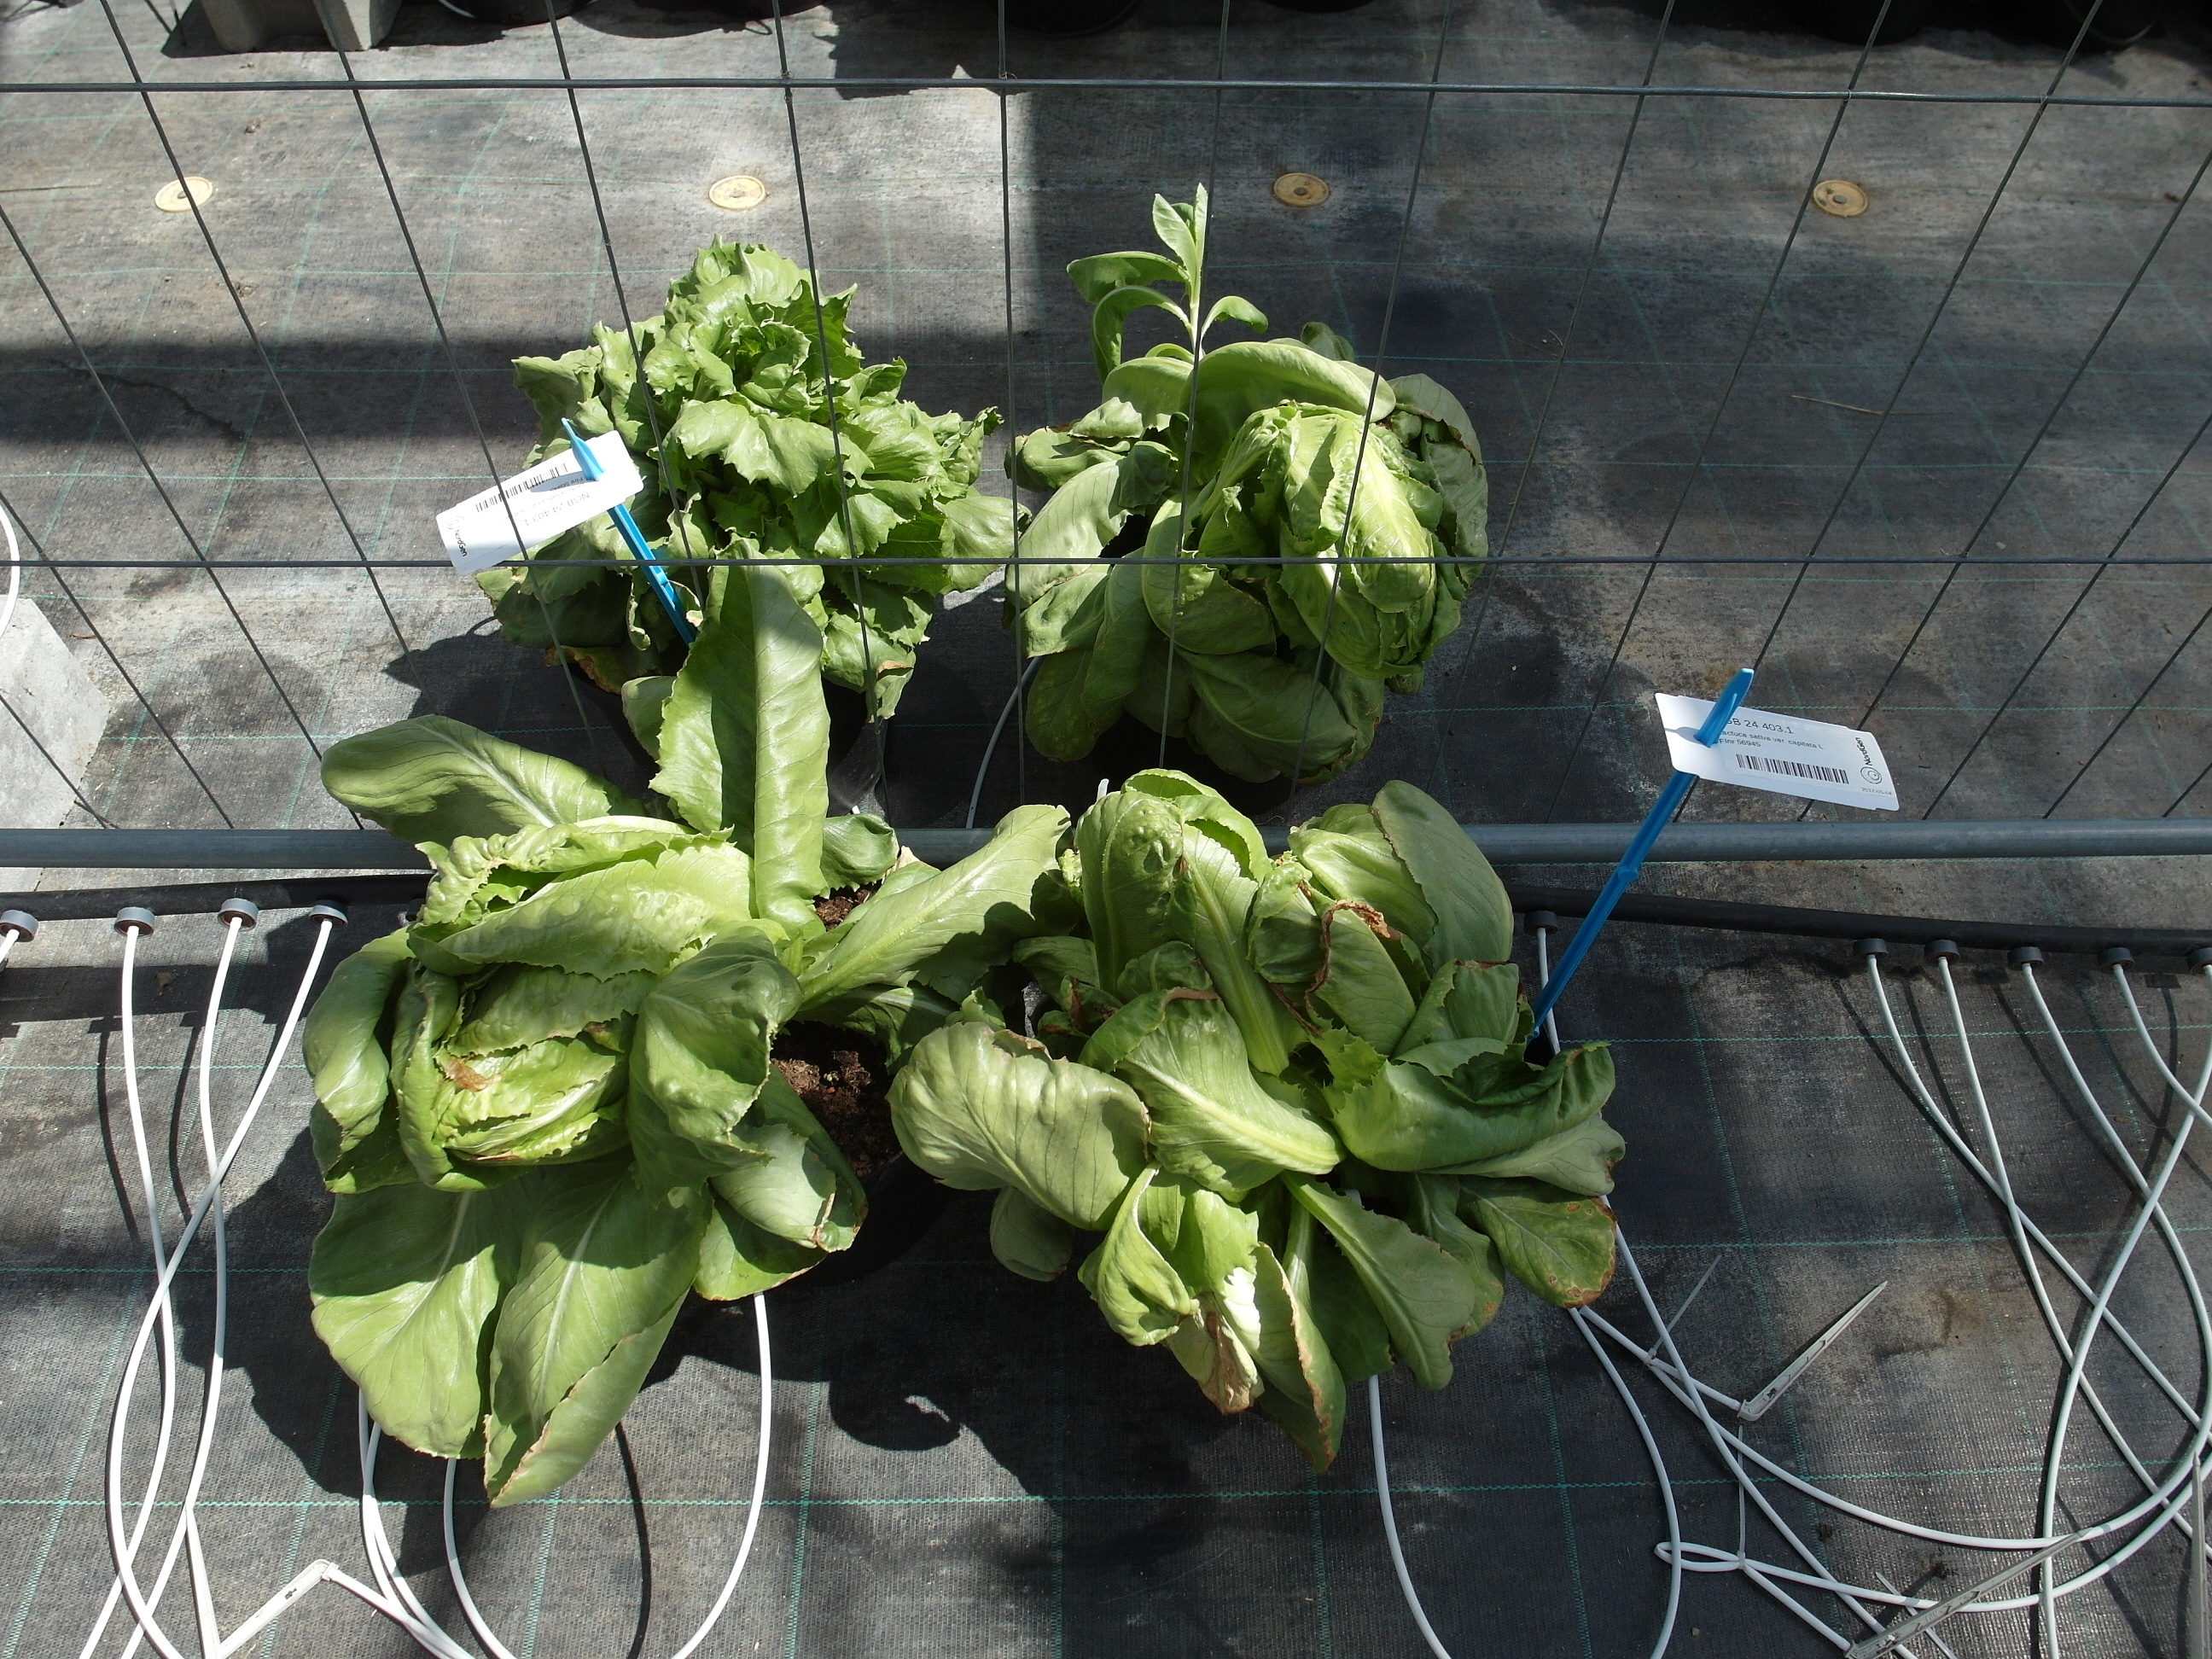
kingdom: Plantae
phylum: Tracheophyta
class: Magnoliopsida
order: Asterales
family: Asteraceae
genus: Lactuca
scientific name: Lactuca sativa
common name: Garden lettuce
